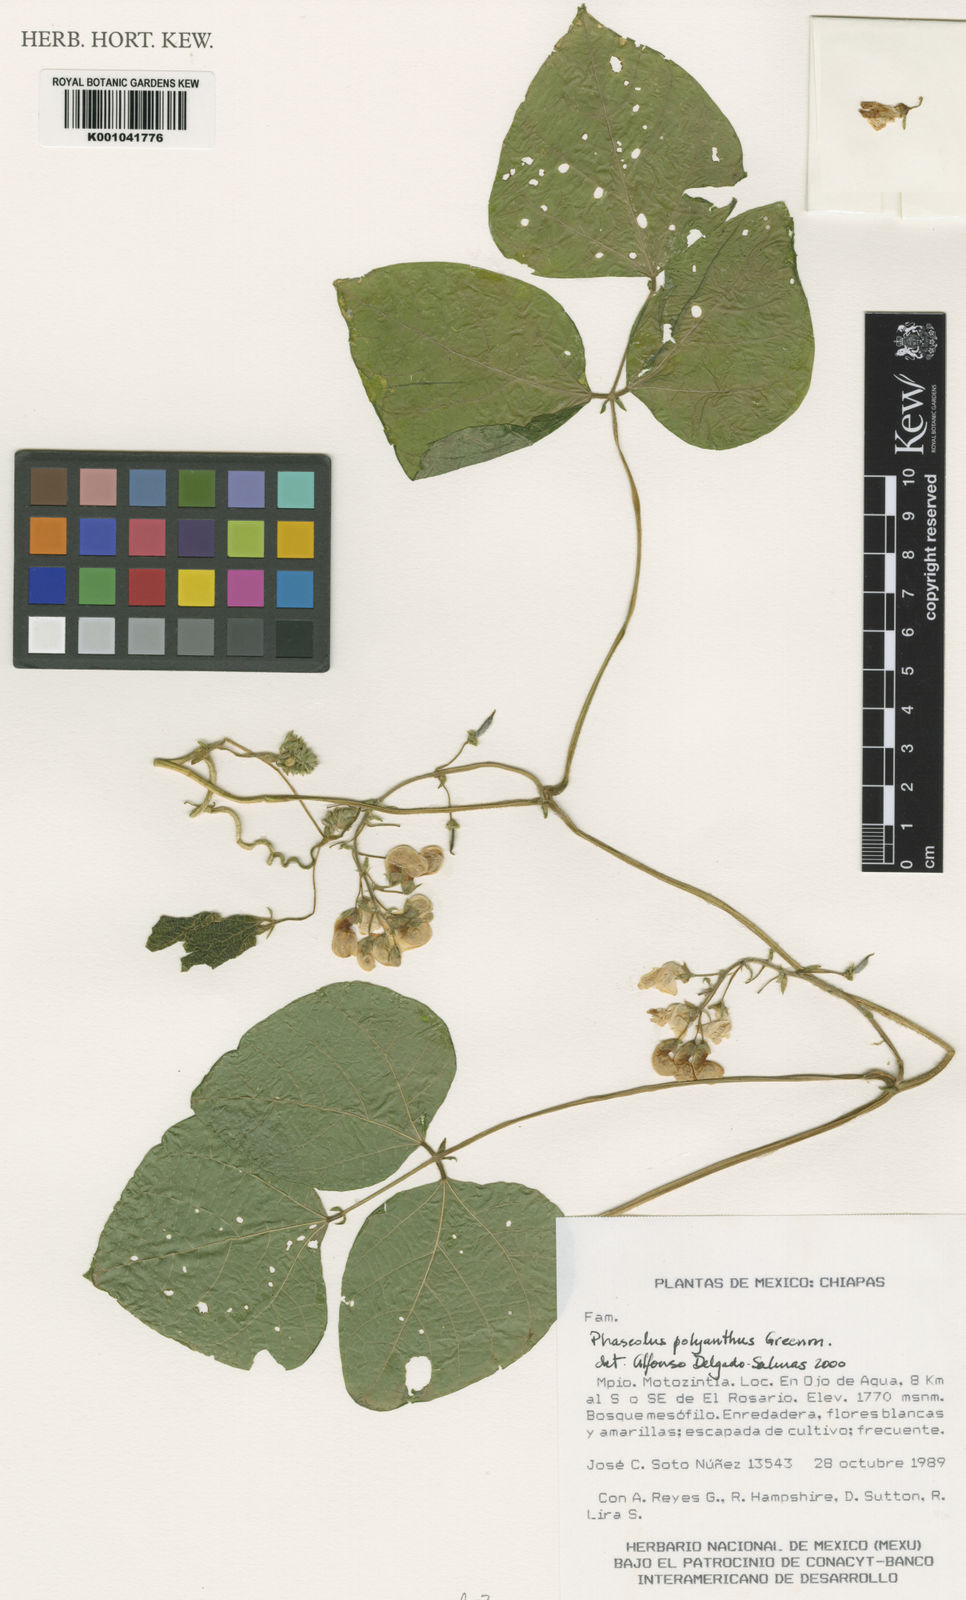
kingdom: Plantae
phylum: Tracheophyta
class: Magnoliopsida
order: Fabales
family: Fabaceae
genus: Phaseolus
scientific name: Phaseolus dumosus
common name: Year bean
